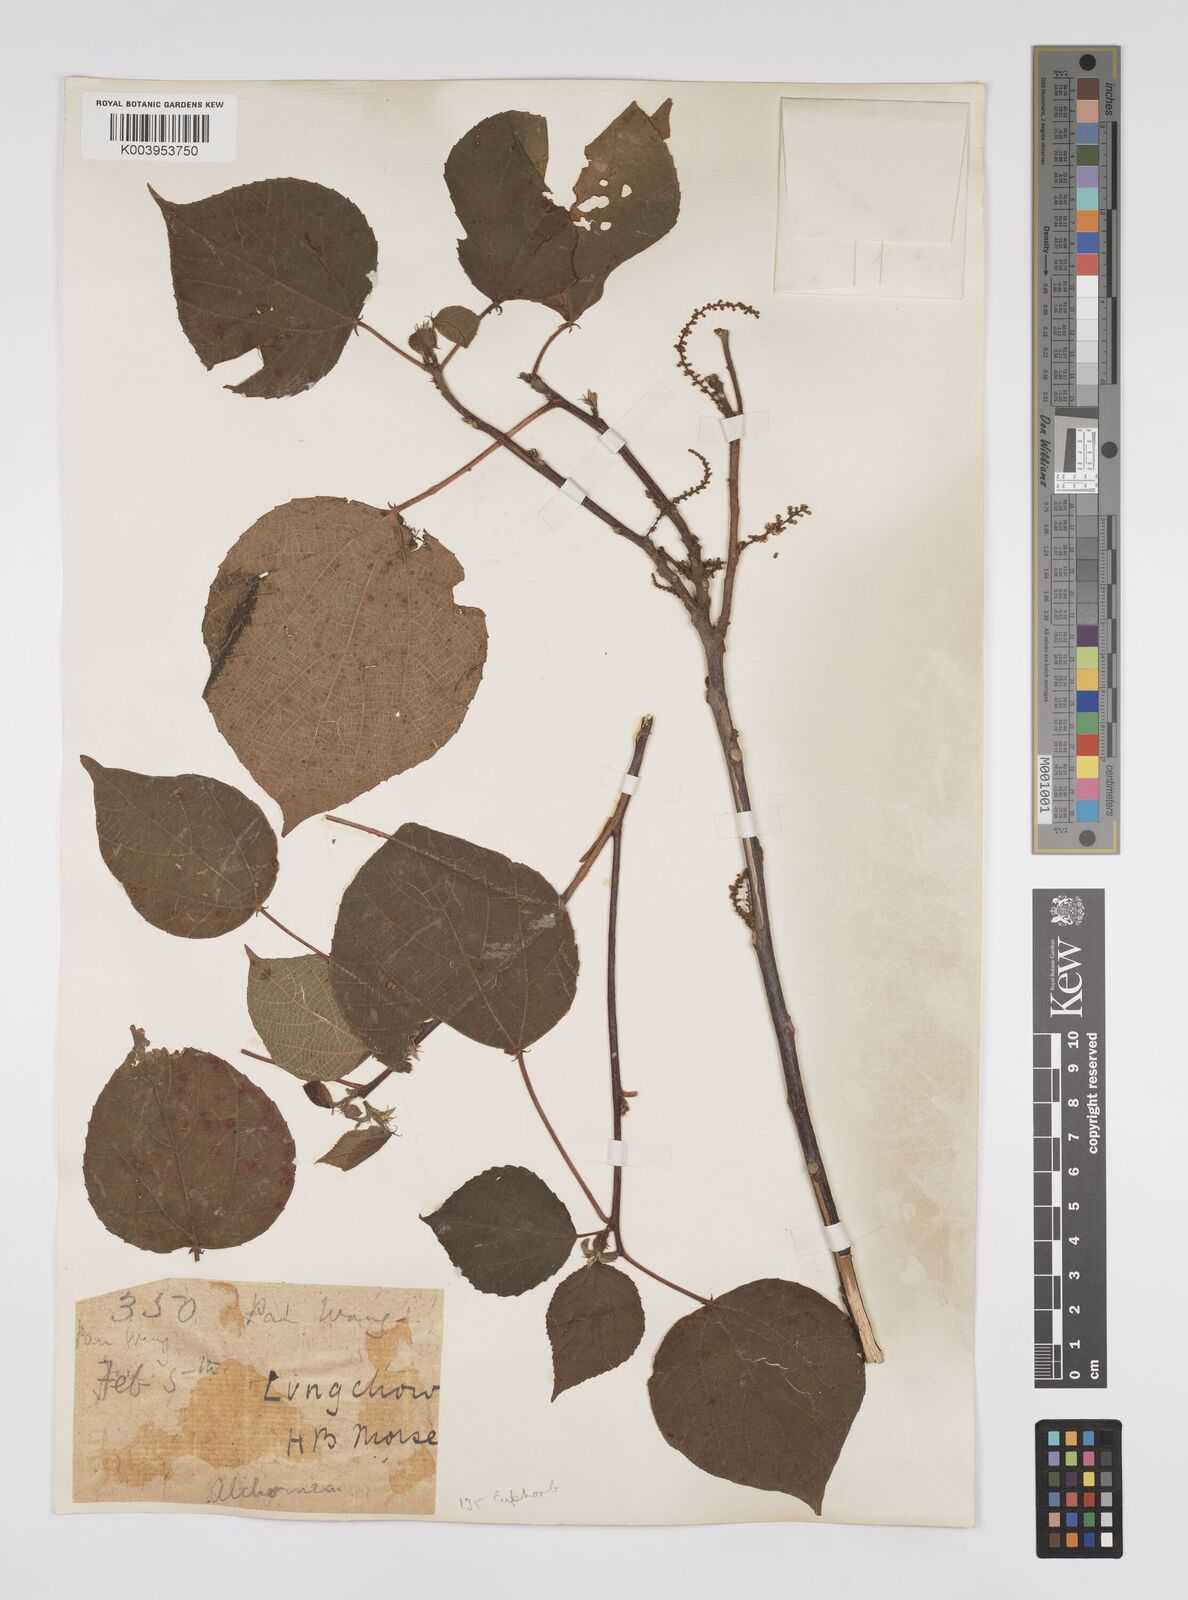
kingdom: Plantae
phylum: Tracheophyta
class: Magnoliopsida
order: Malpighiales
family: Euphorbiaceae
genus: Alchornea
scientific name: Alchornea mollis
